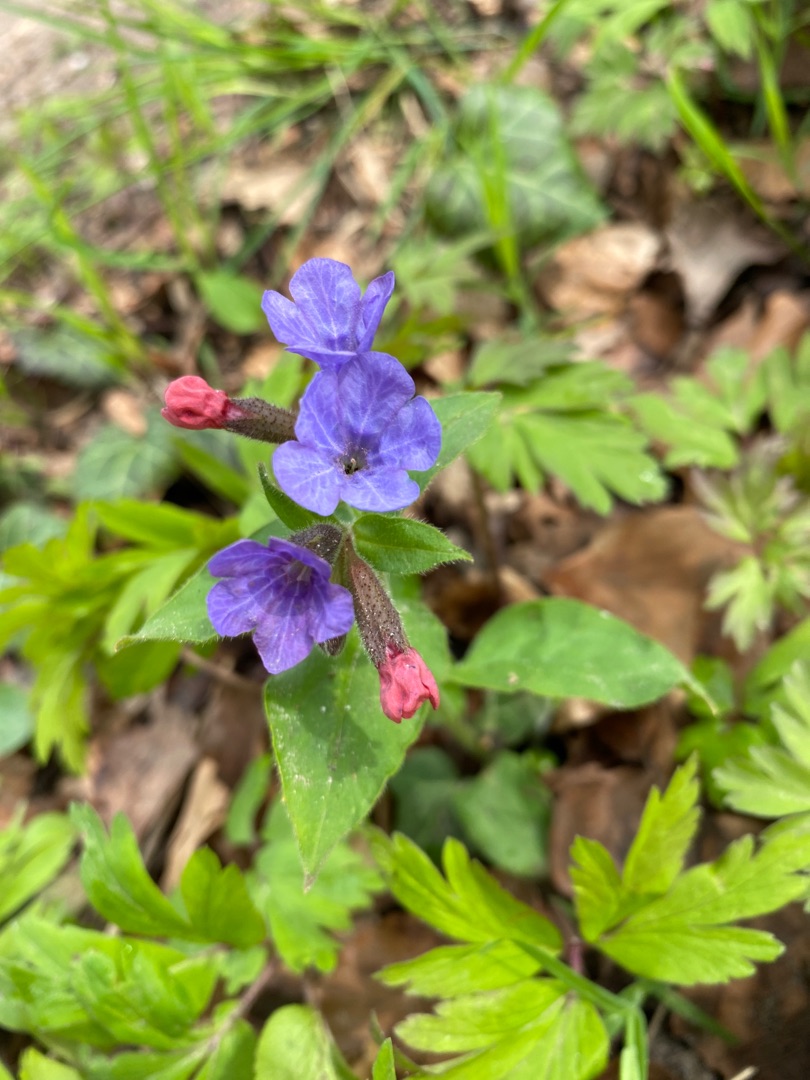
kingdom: Plantae
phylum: Tracheophyta
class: Magnoliopsida
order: Boraginales
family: Boraginaceae
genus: Pulmonaria
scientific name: Pulmonaria obscura
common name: Almindelig lungeurt
